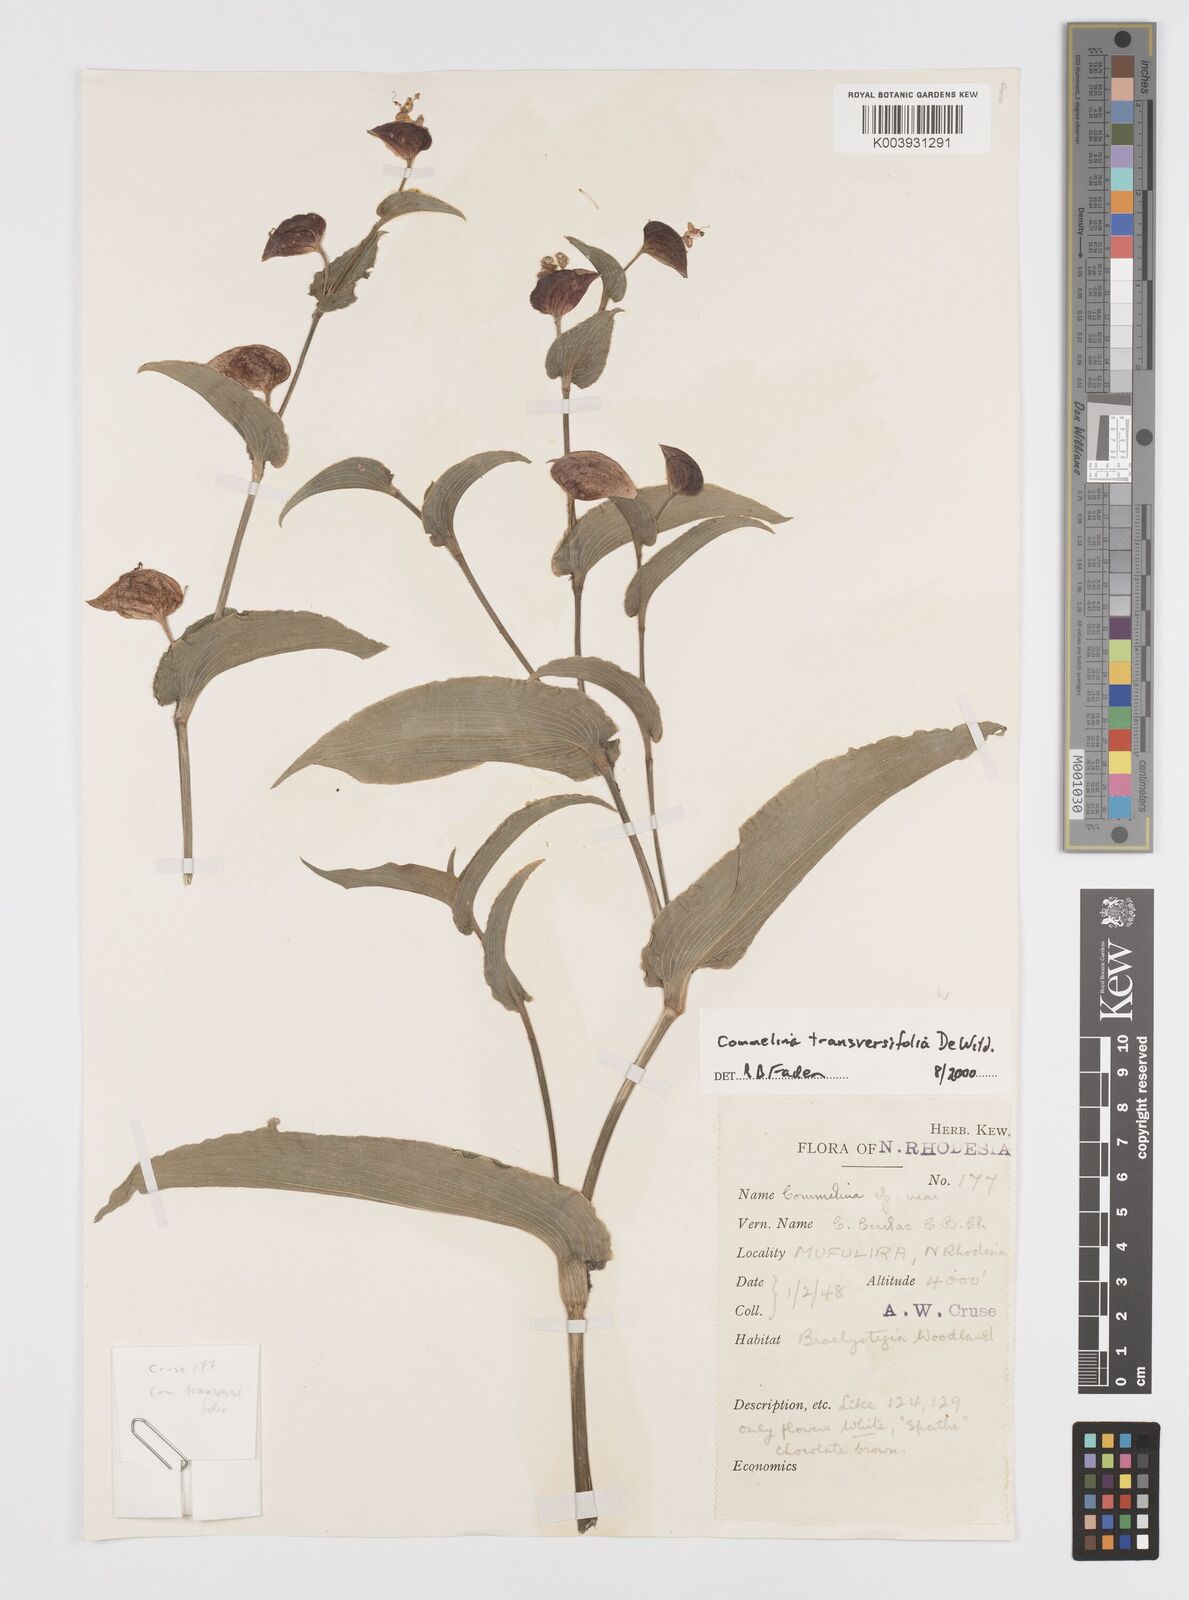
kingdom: Plantae
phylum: Tracheophyta
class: Liliopsida
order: Commelinales
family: Commelinaceae
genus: Commelina
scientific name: Commelina transversifolia
